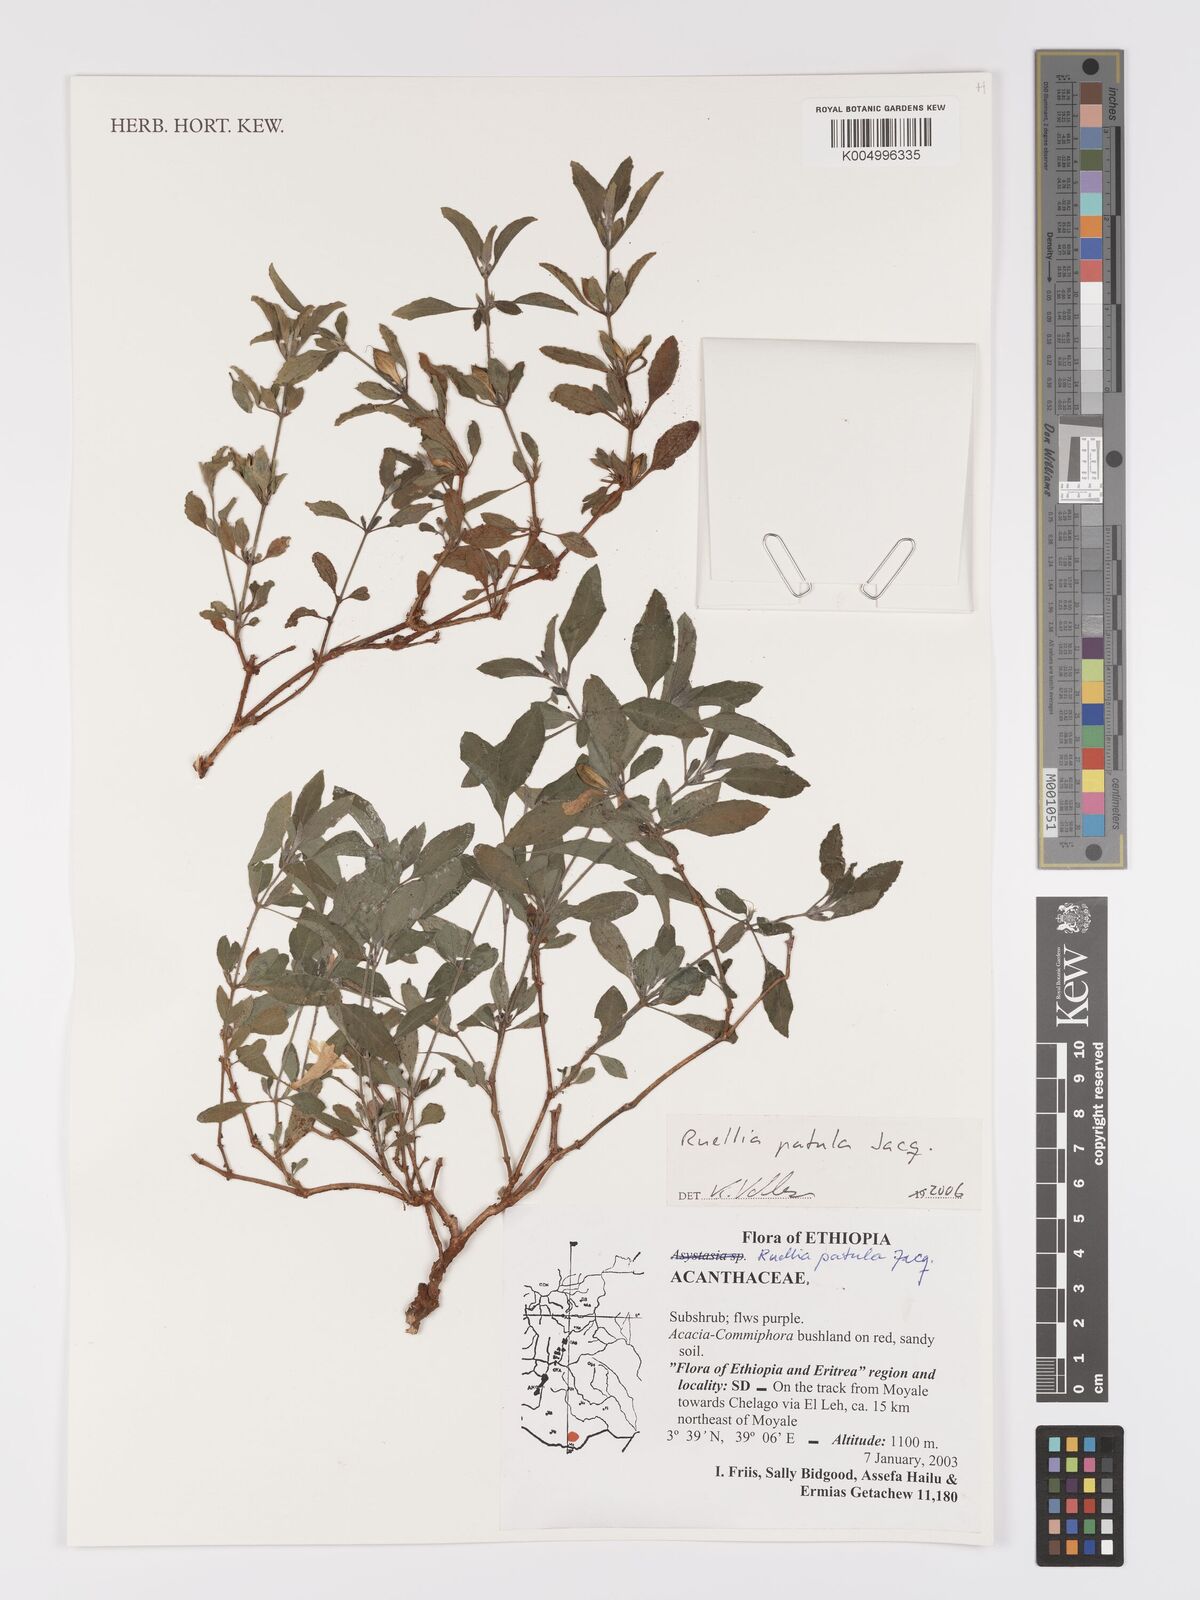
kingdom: Plantae
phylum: Tracheophyta
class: Magnoliopsida
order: Lamiales
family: Acanthaceae
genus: Ruellia
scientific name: Ruellia patula
